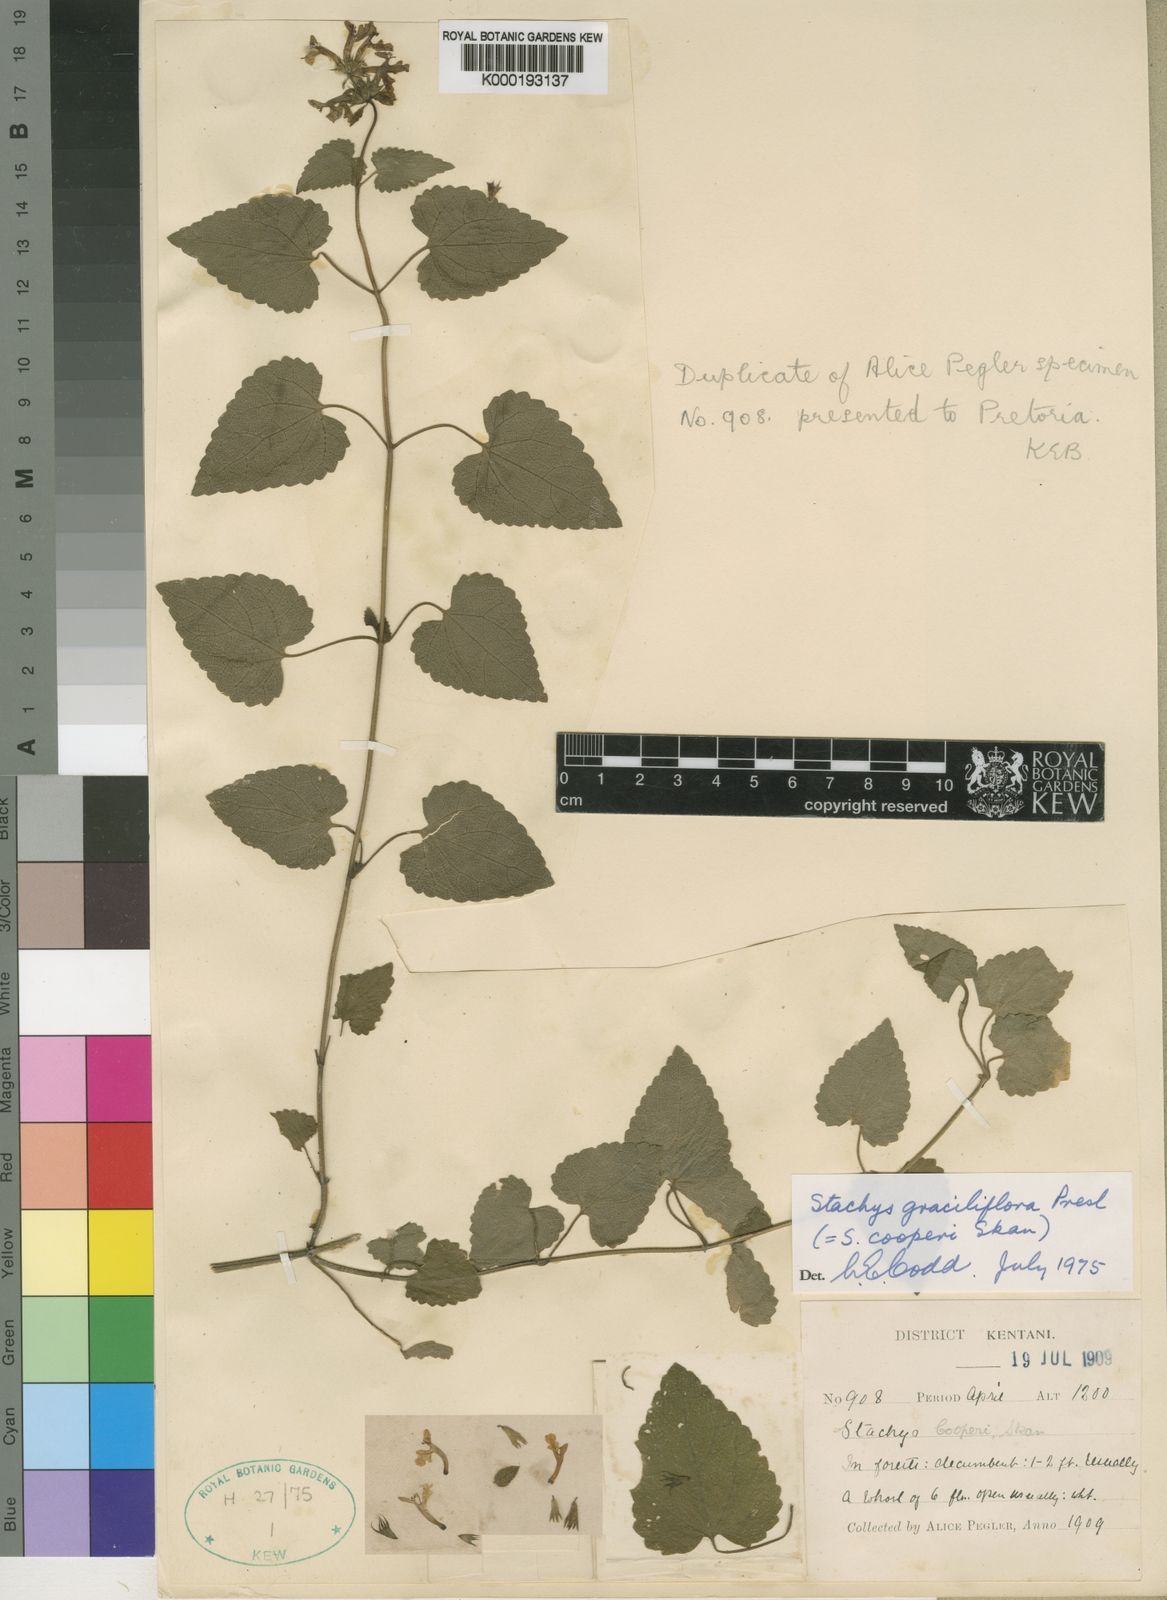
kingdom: Plantae
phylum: Tracheophyta
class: Magnoliopsida
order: Lamiales
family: Lamiaceae
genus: Stachys
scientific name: Stachys graciliflora
